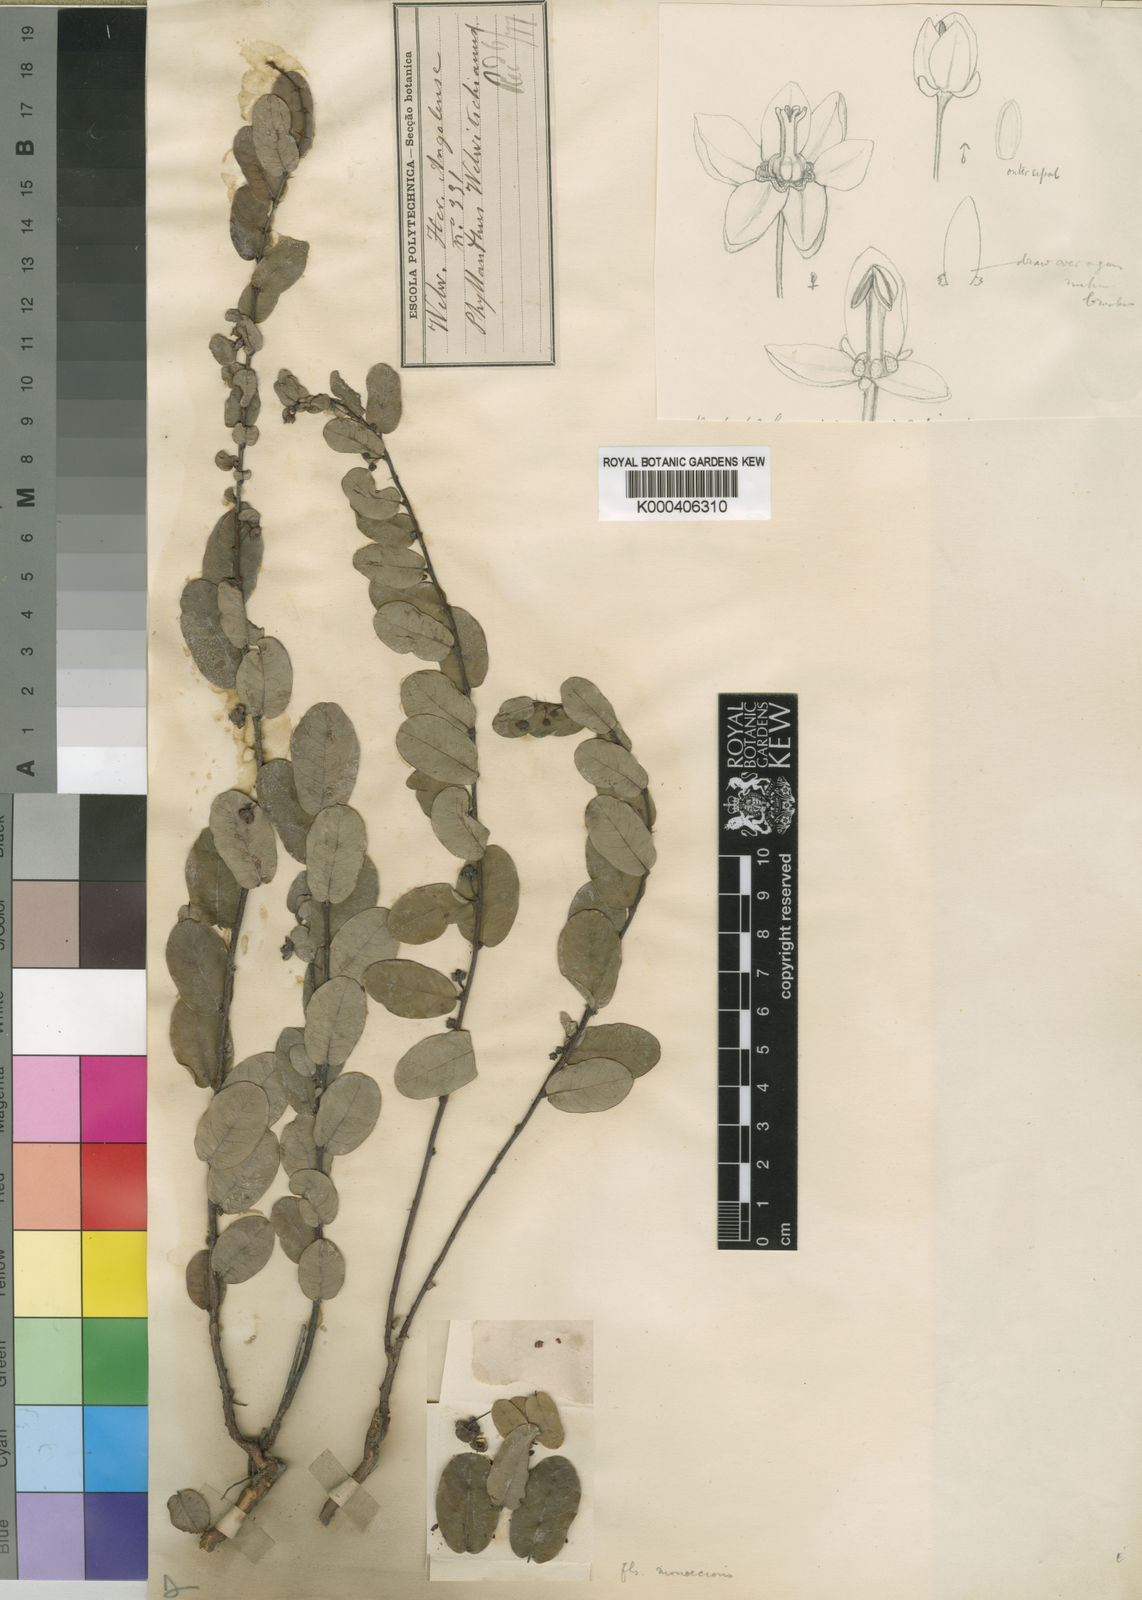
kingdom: Plantae
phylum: Tracheophyta
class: Magnoliopsida
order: Malpighiales
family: Phyllanthaceae
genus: Phyllanthus
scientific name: Phyllanthus
